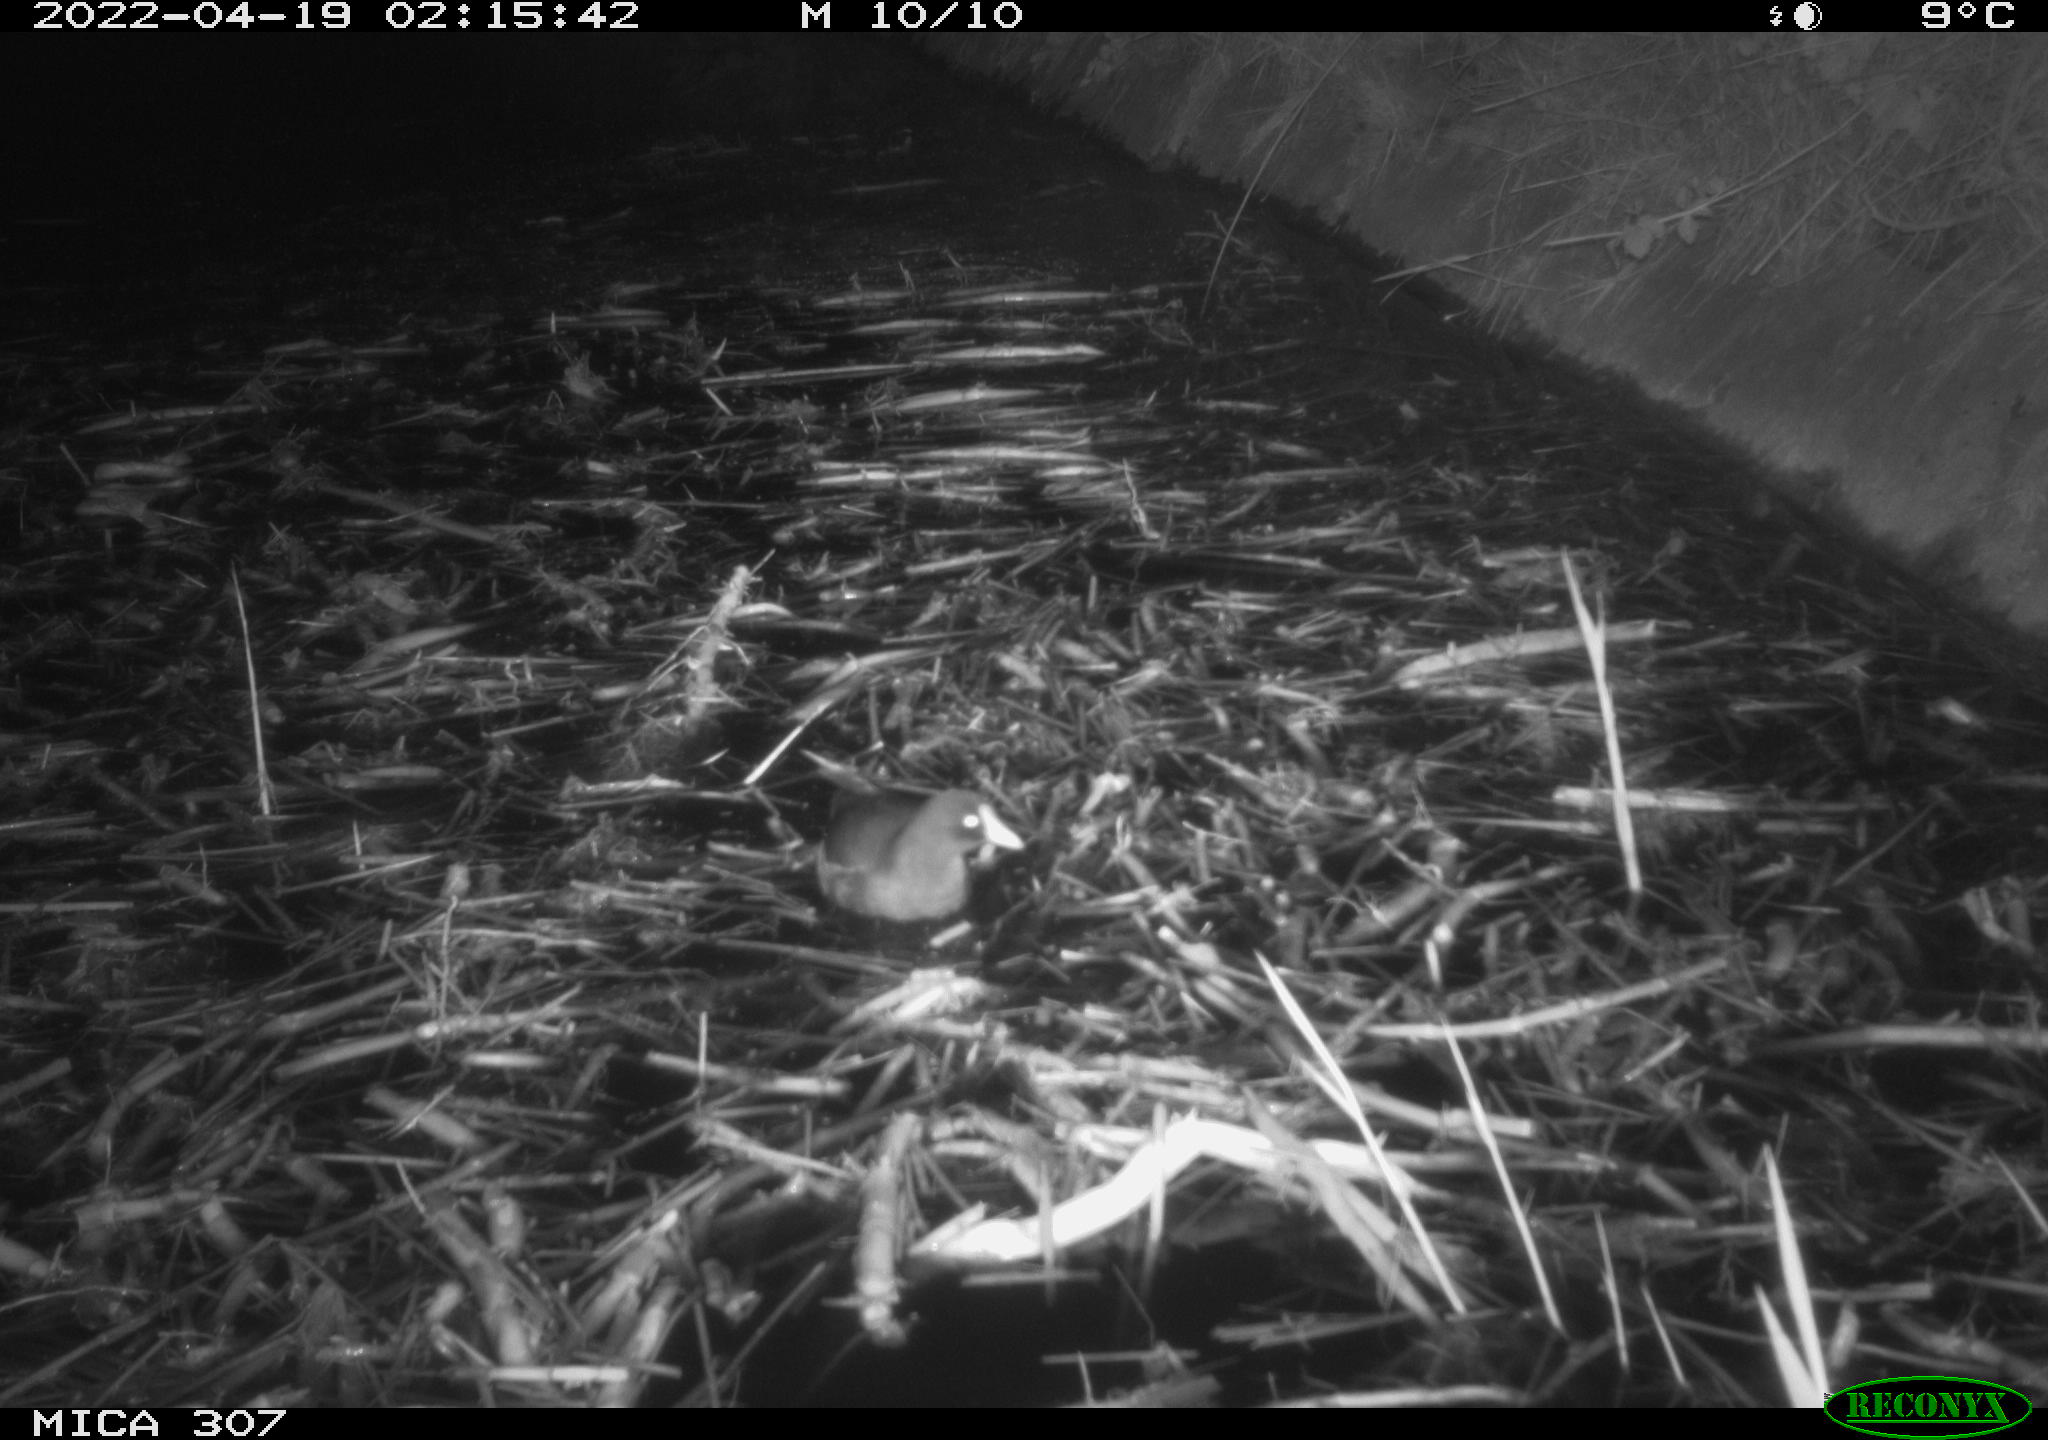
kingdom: Animalia
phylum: Chordata
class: Aves
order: Gruiformes
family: Rallidae
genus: Gallinula
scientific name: Gallinula chloropus
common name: Common moorhen
